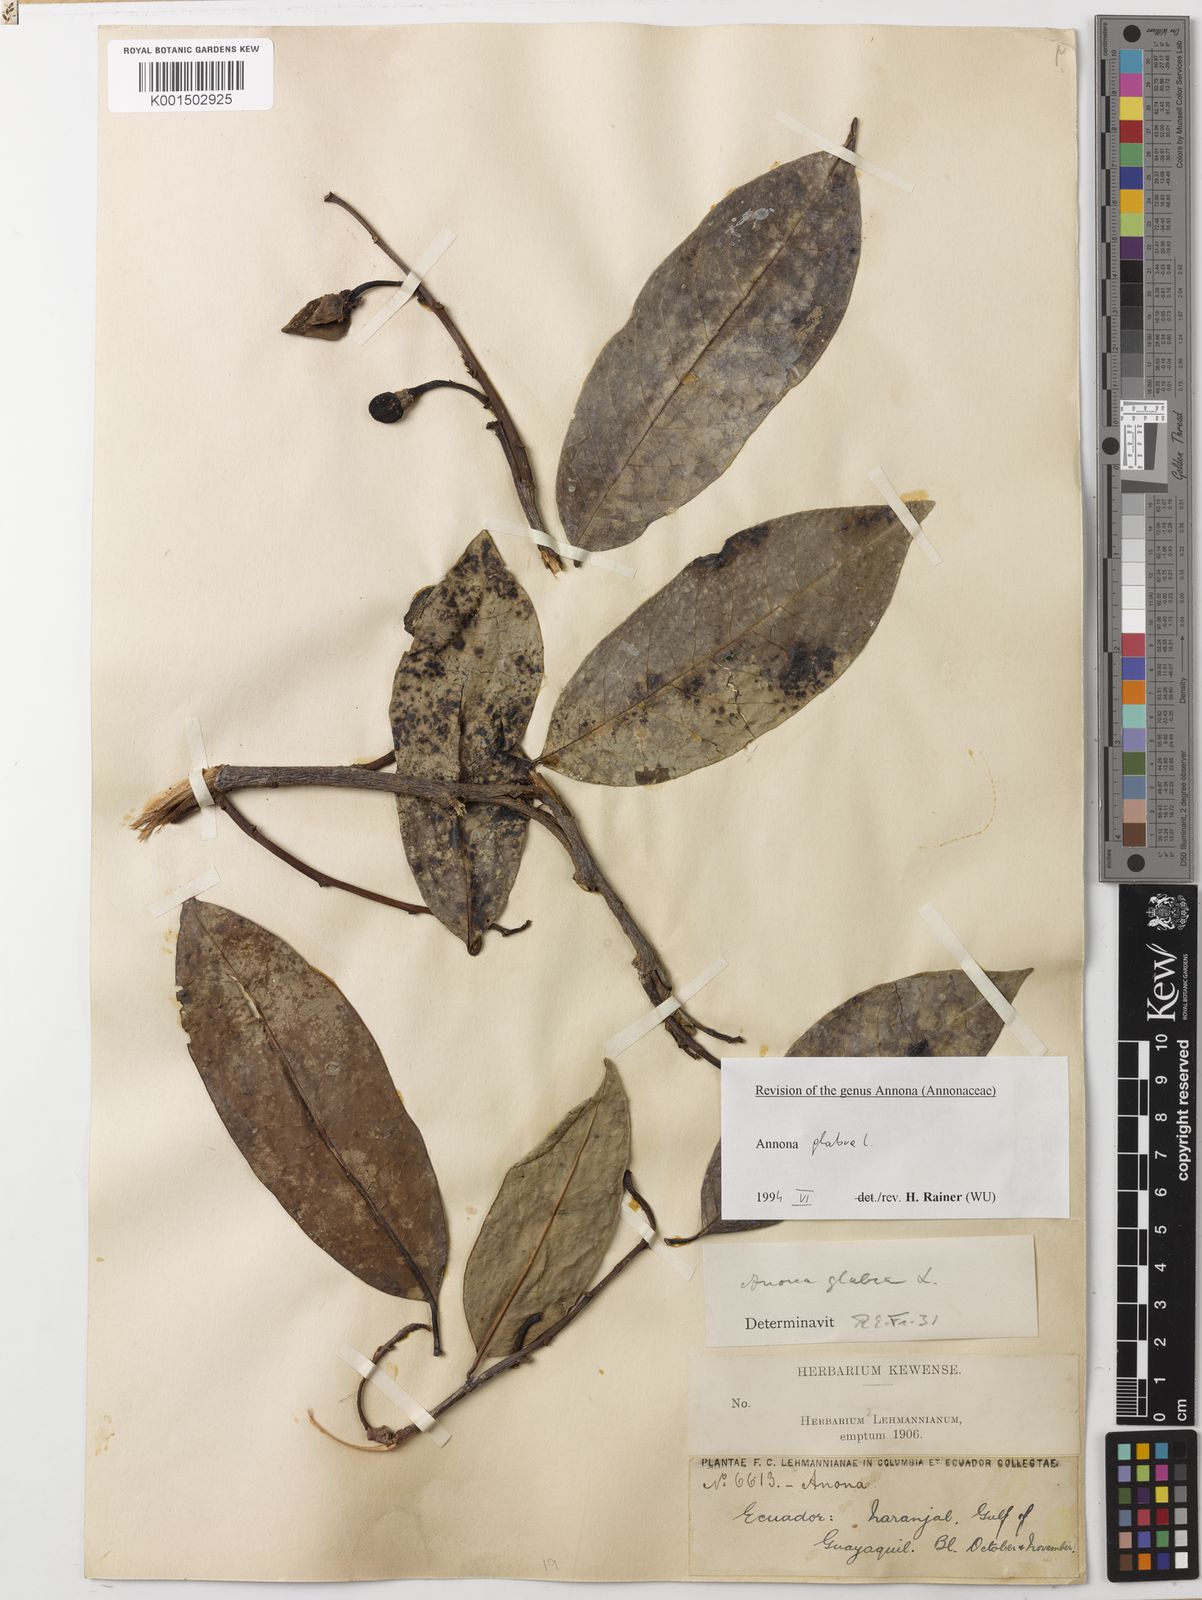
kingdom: Plantae
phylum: Tracheophyta
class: Magnoliopsida
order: Magnoliales
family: Annonaceae
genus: Annona
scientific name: Annona glabra
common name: Monkey apple
